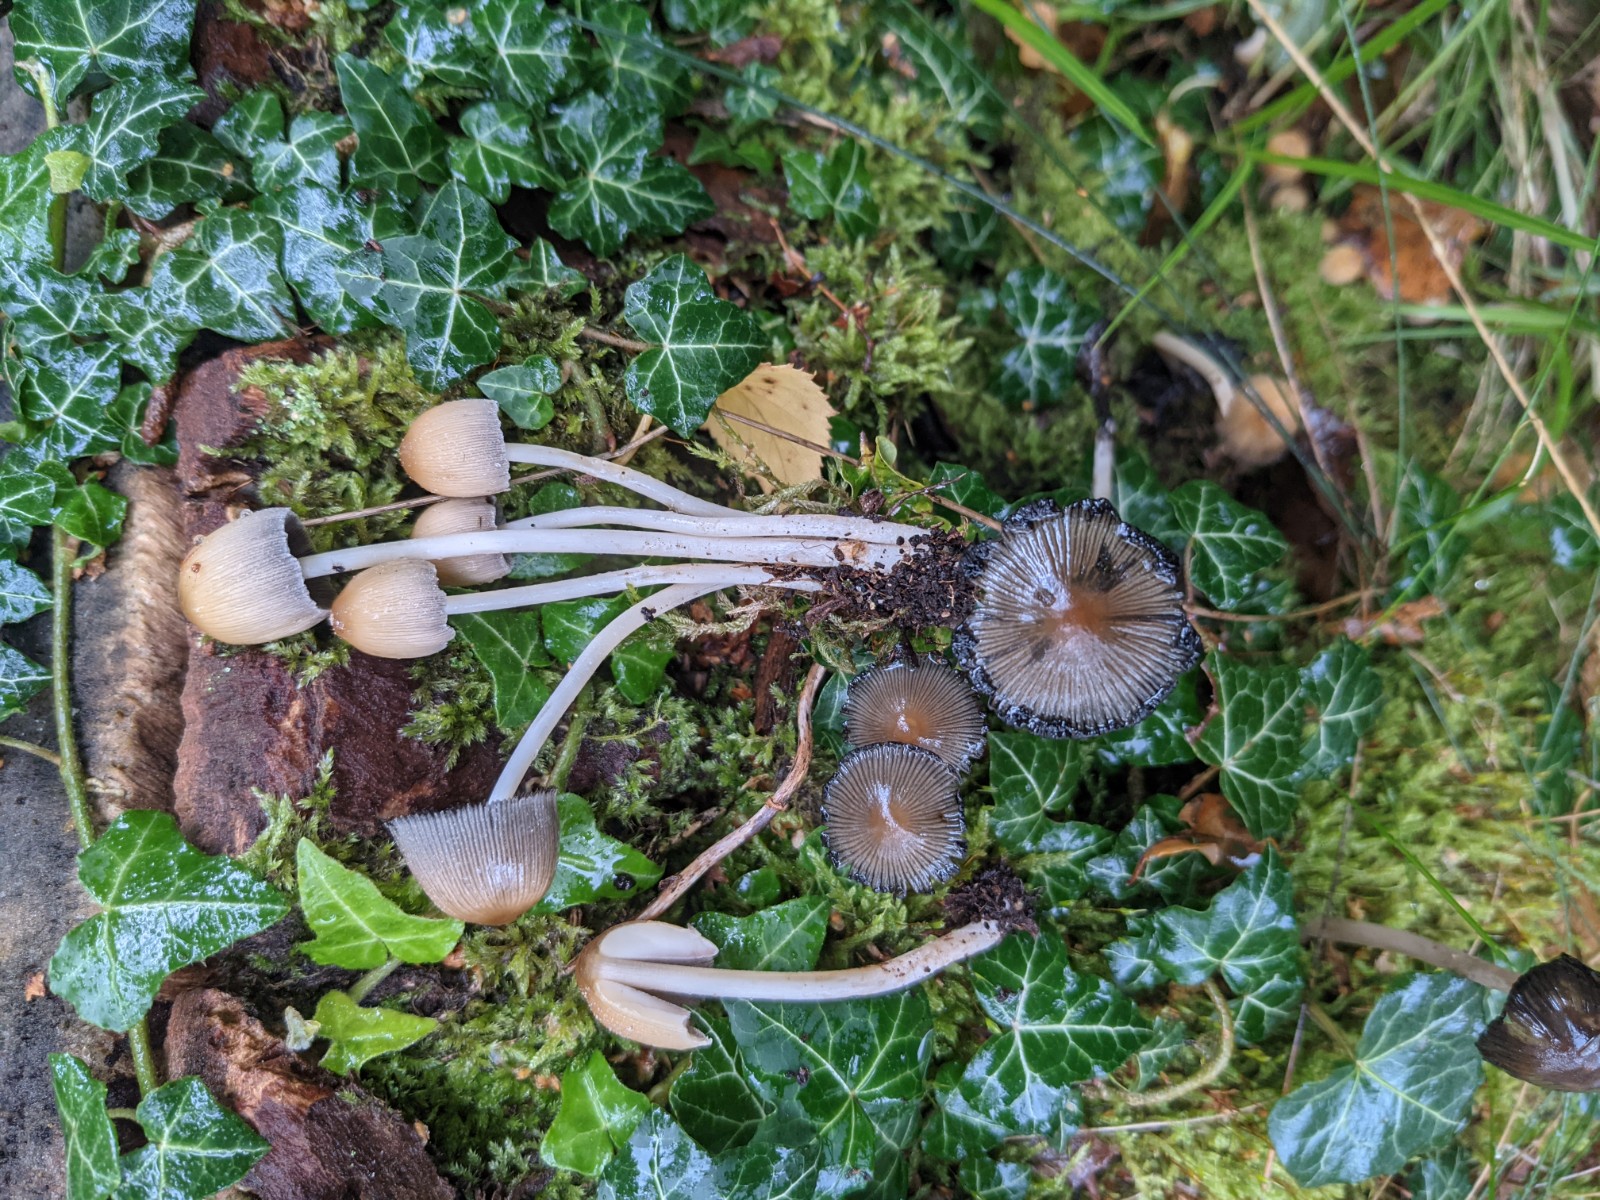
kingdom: Fungi
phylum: Basidiomycota
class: Agaricomycetes
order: Agaricales
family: Psathyrellaceae
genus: Coprinellus
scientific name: Coprinellus micaceus
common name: glimmer-blækhat
